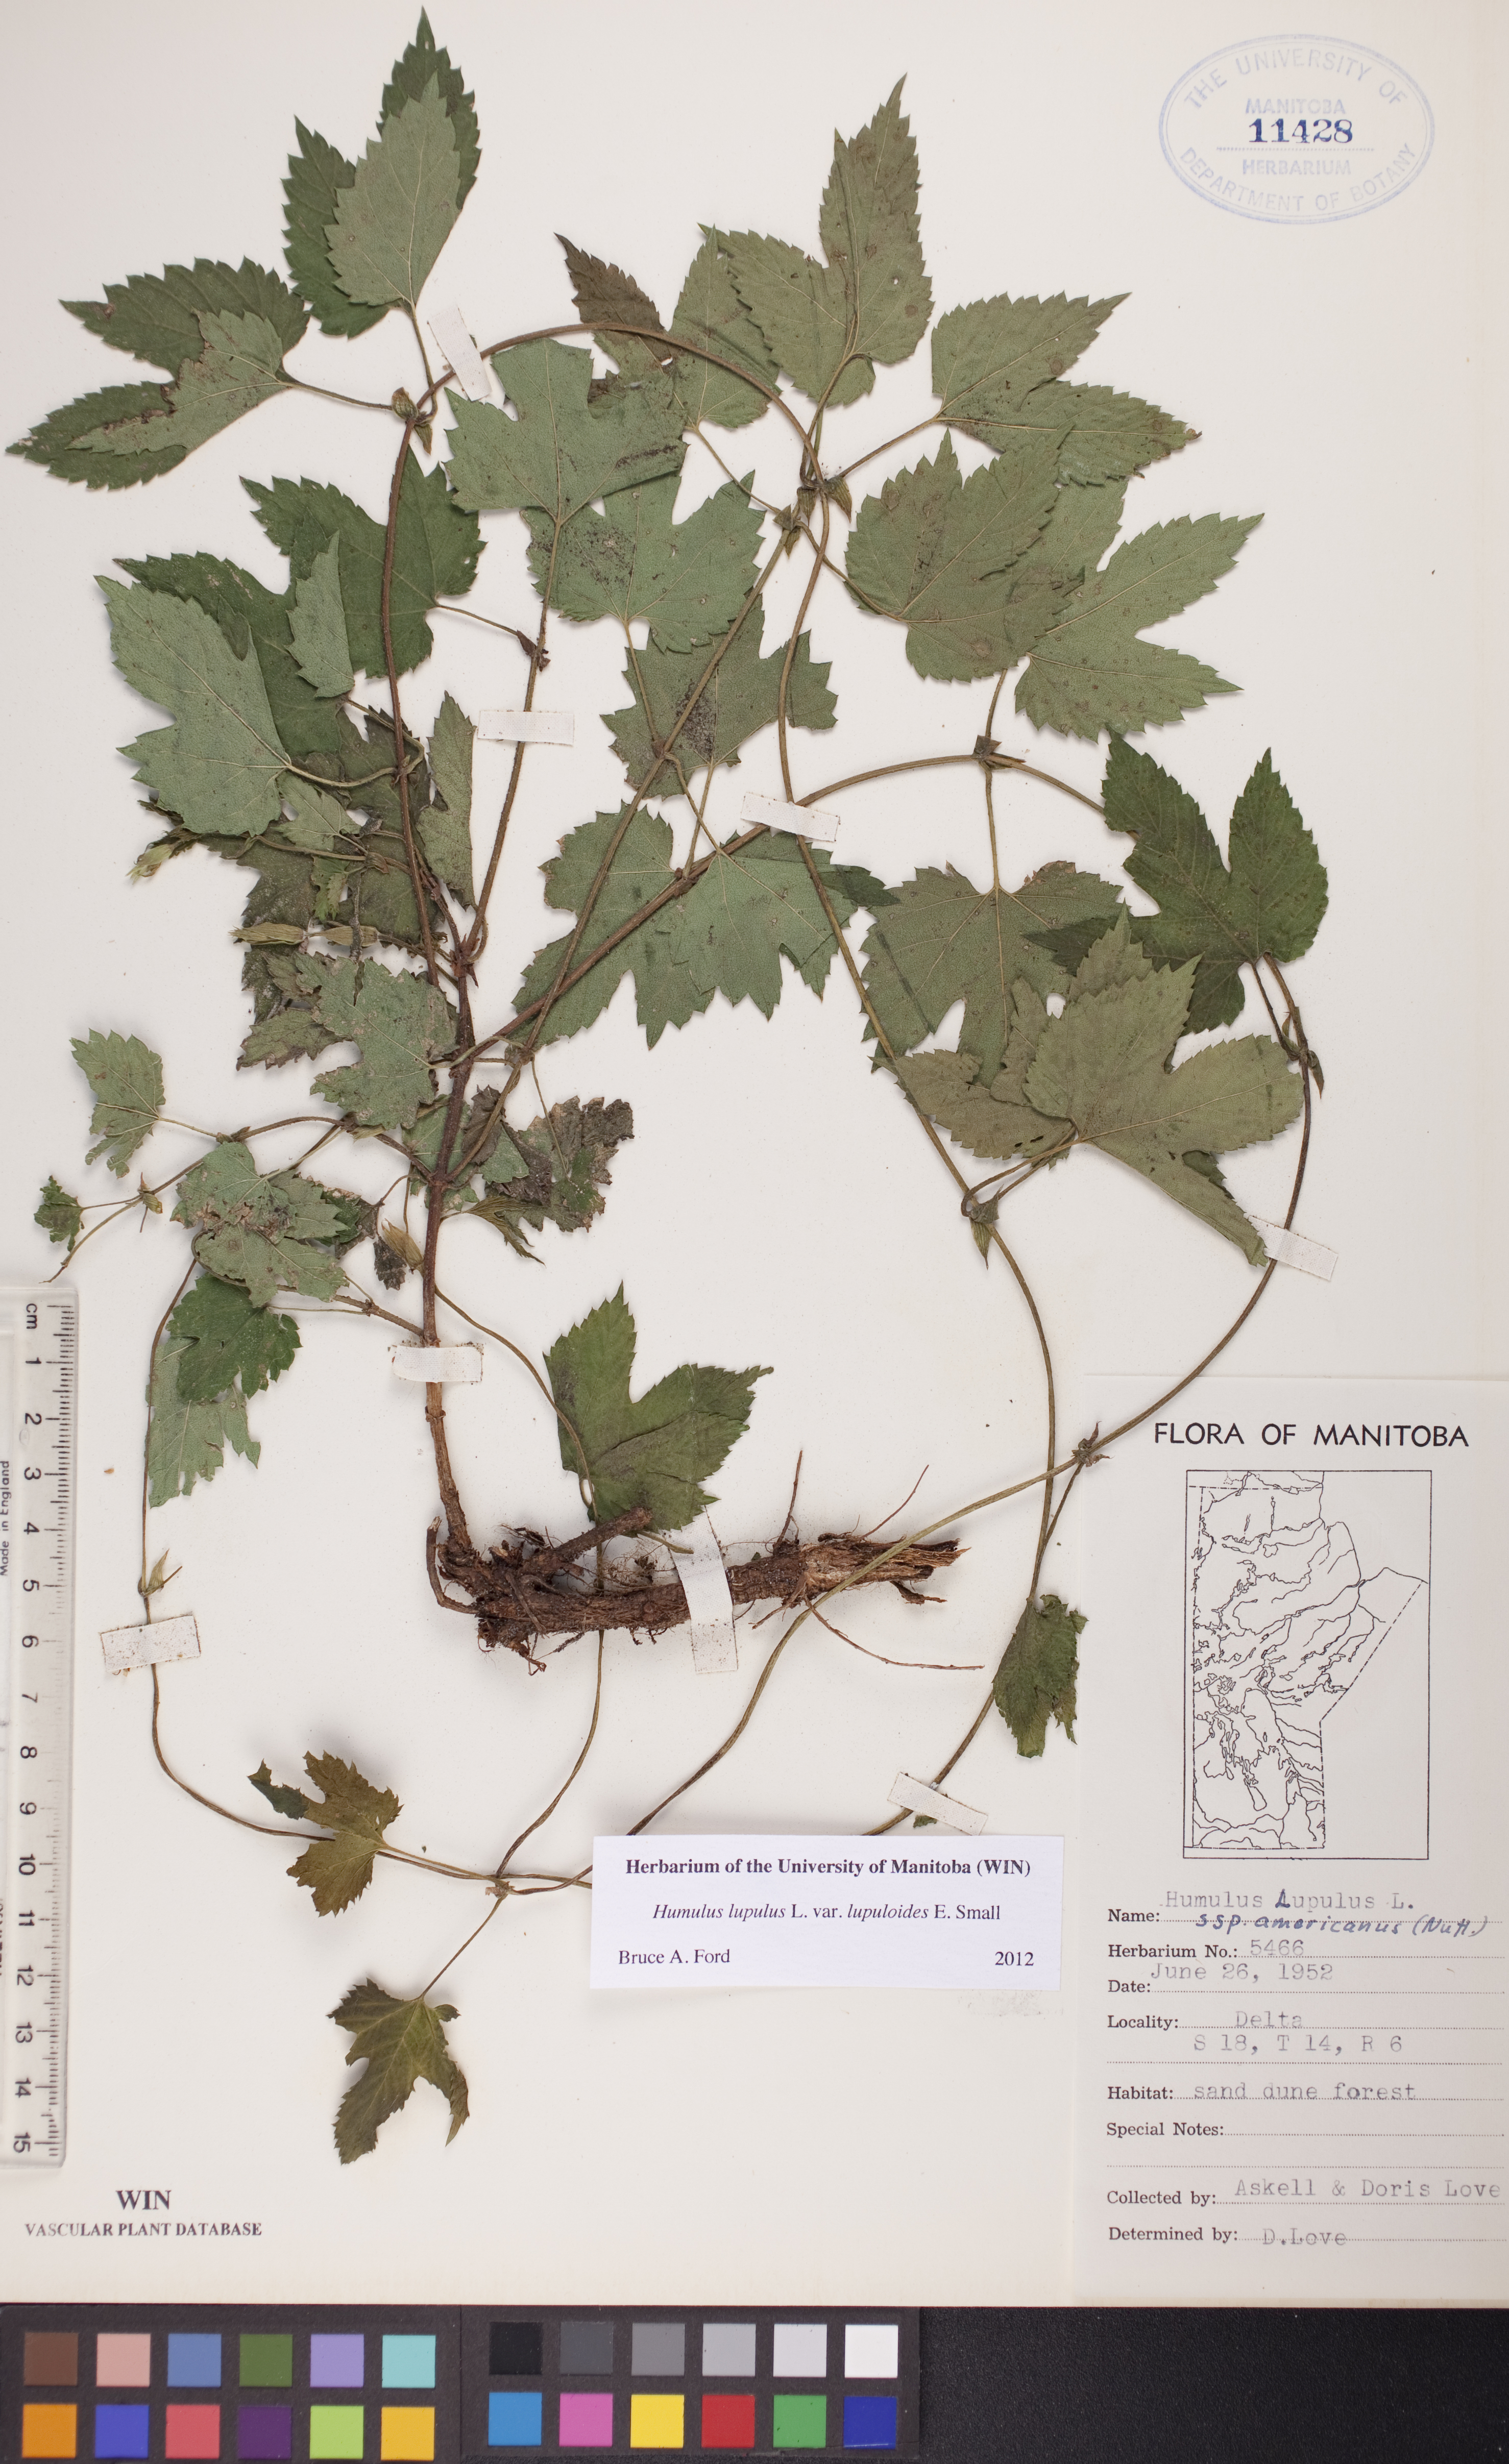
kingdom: Plantae
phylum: Tracheophyta
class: Magnoliopsida
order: Rosales
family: Cannabaceae
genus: Humulus
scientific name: Humulus americanus
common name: American hops
